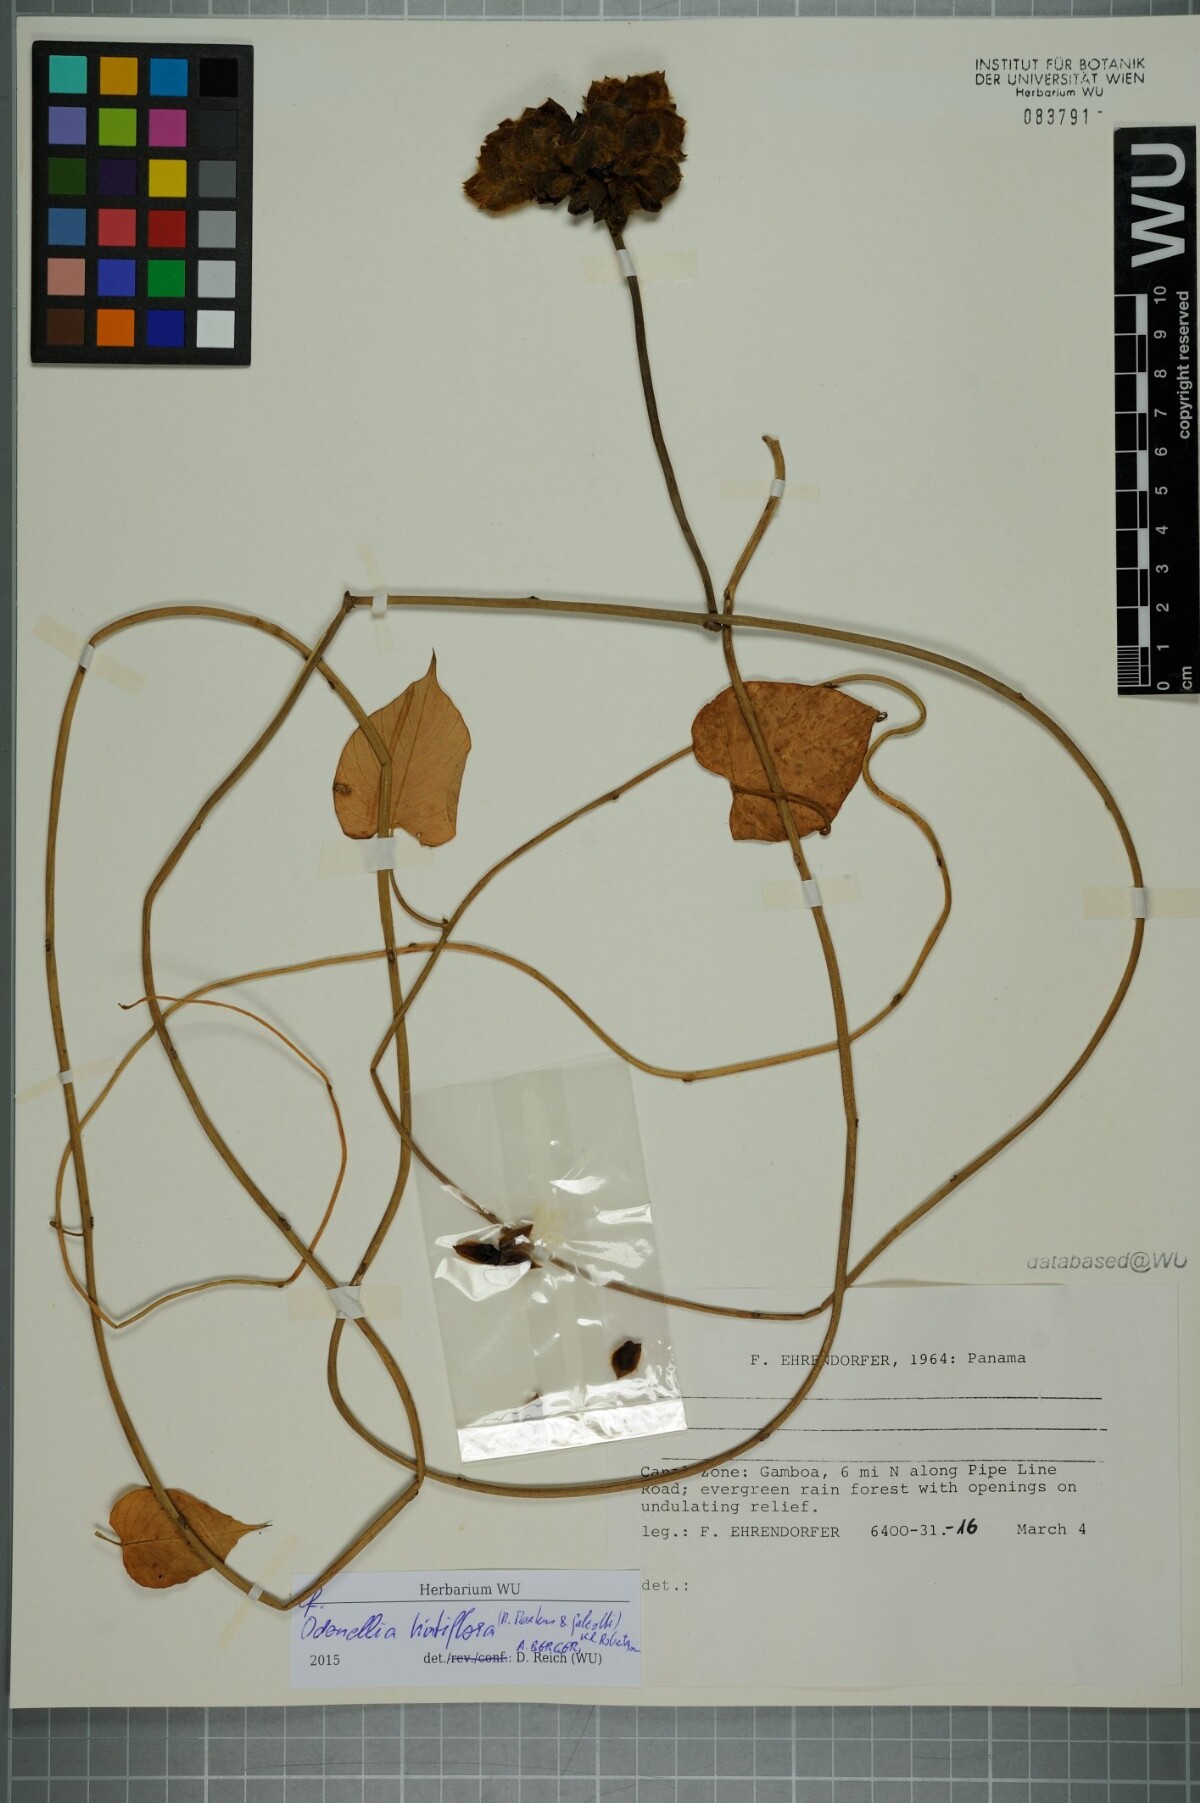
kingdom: Plantae
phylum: Tracheophyta
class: Magnoliopsida
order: Solanales
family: Convolvulaceae
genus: Odonellia
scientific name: Odonellia hirtiflora
